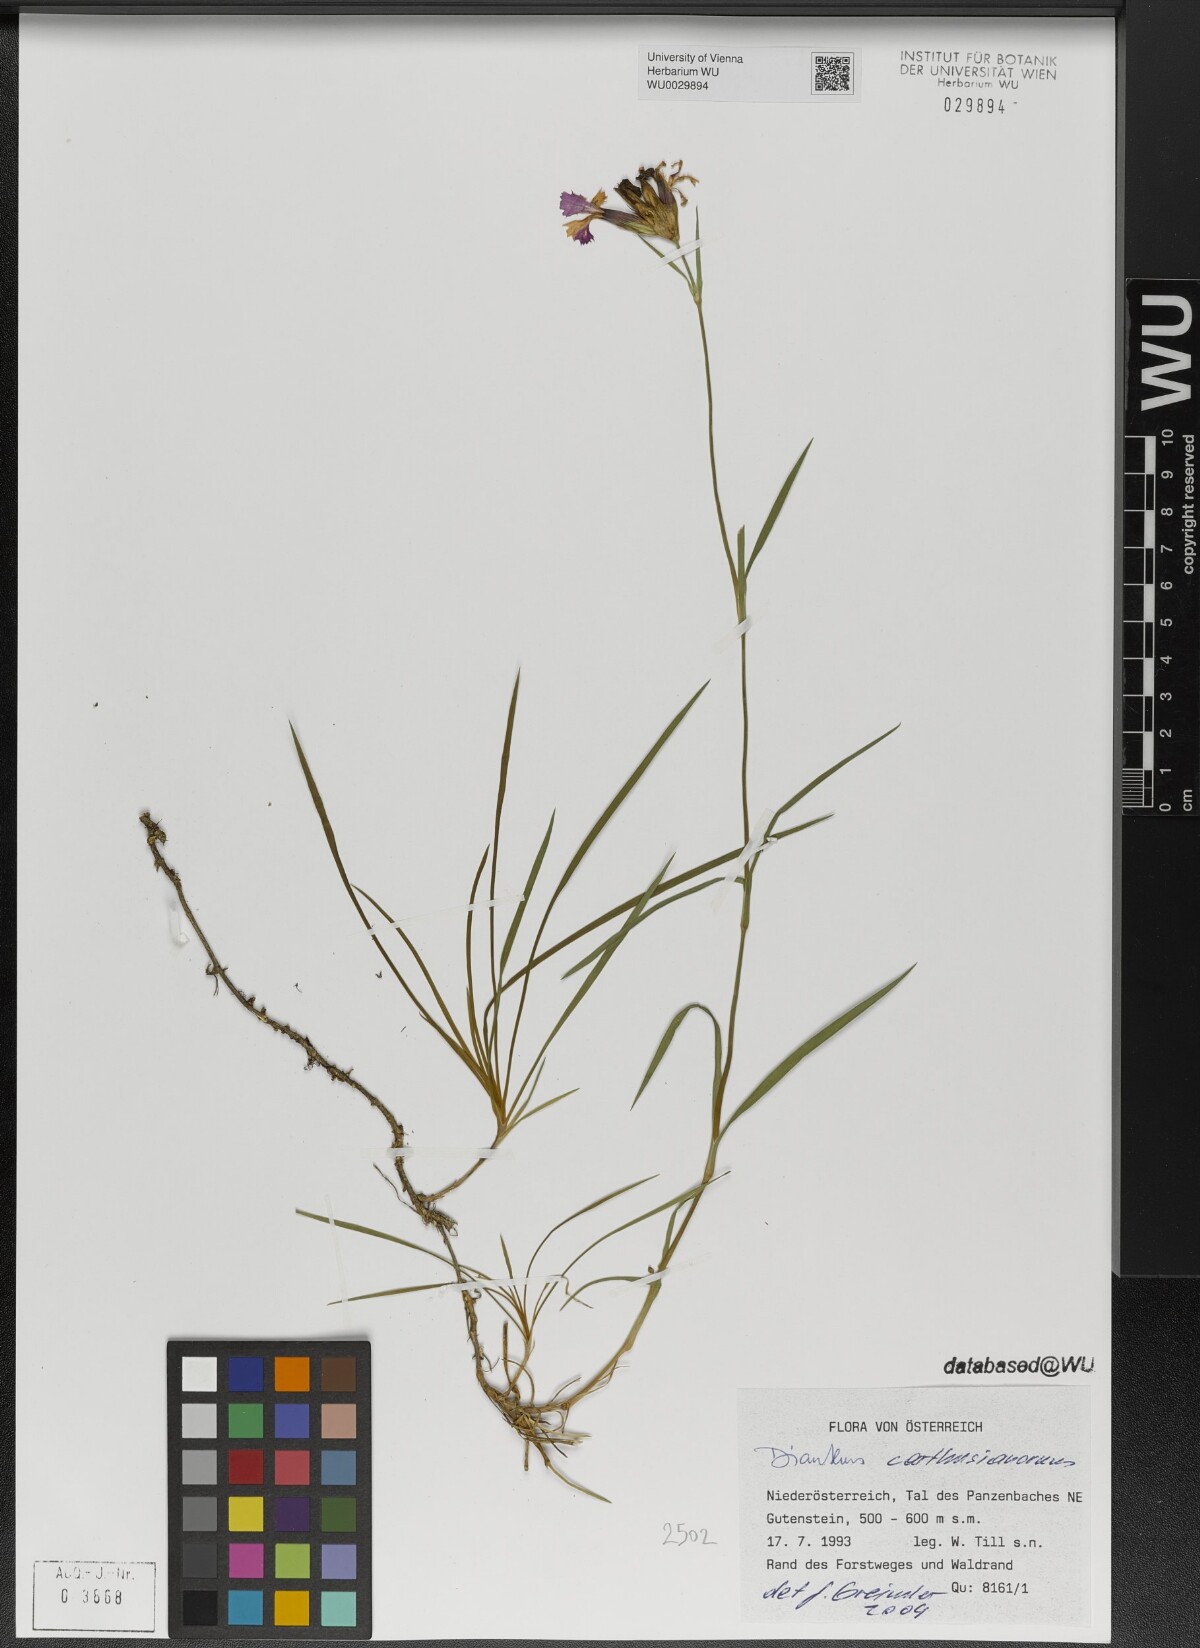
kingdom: Plantae
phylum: Tracheophyta
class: Magnoliopsida
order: Caryophyllales
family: Caryophyllaceae
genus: Dianthus
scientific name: Dianthus carthusianorum
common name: Carthusian pink
